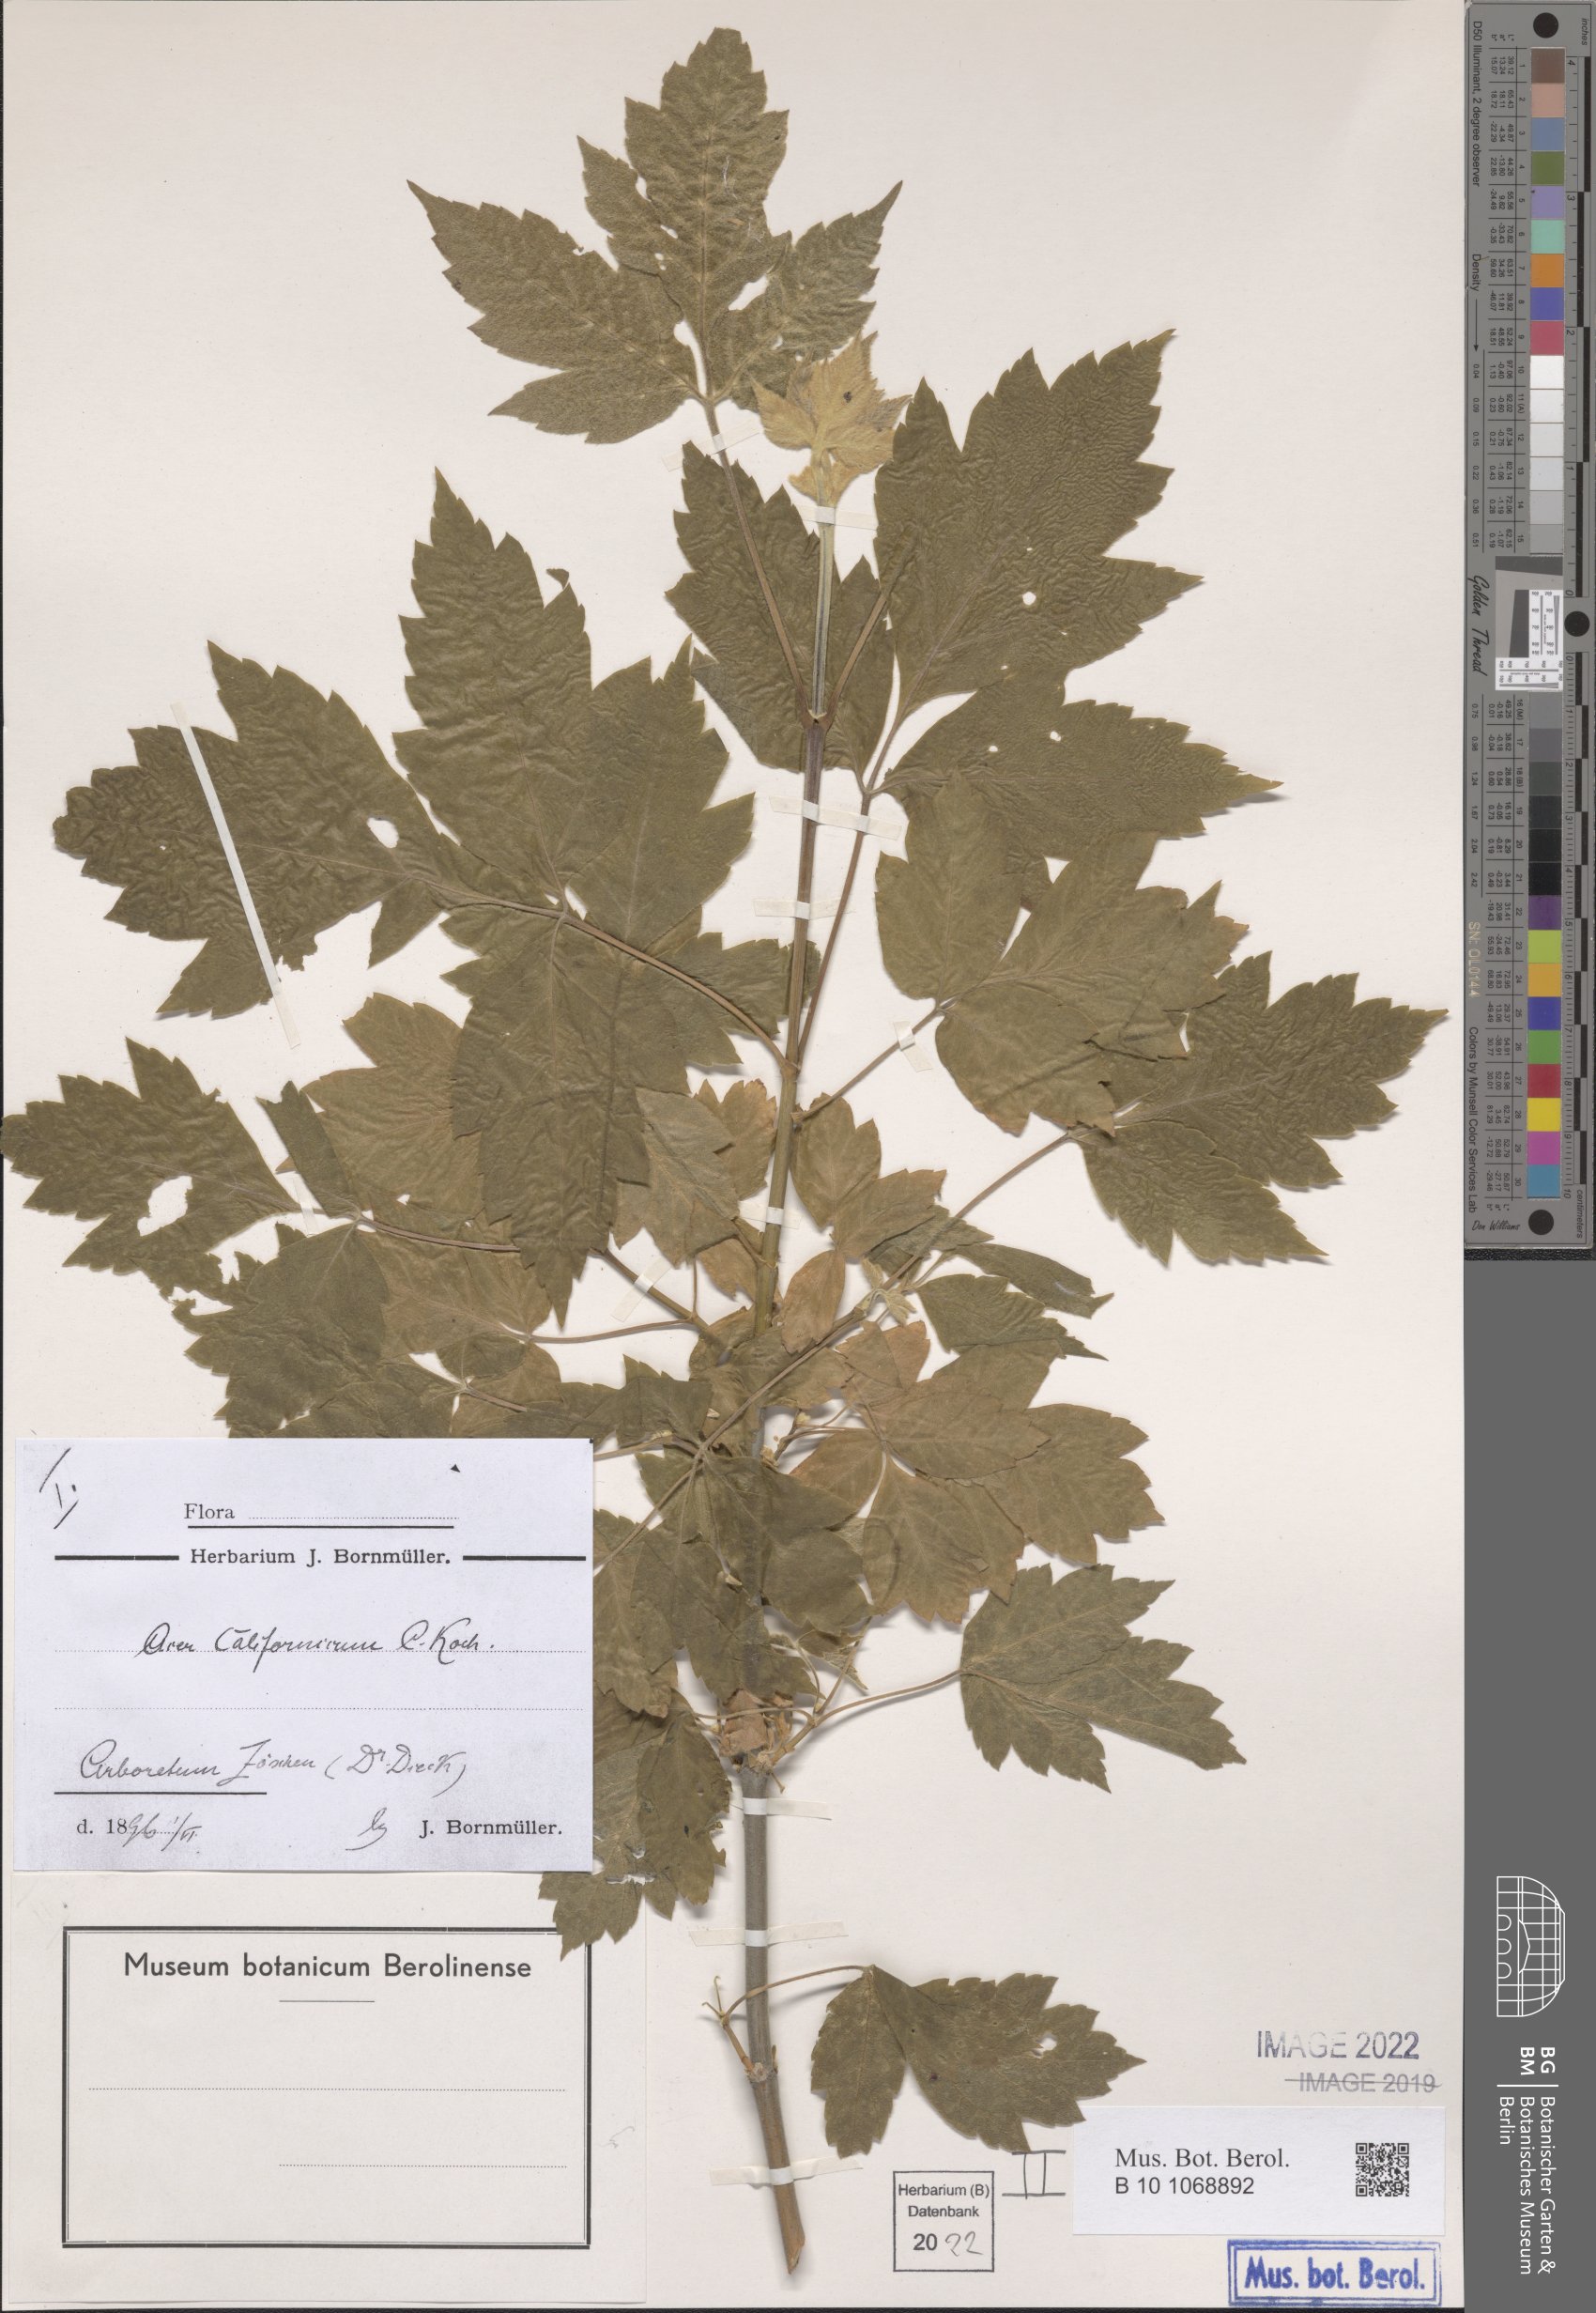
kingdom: Plantae
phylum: Tracheophyta
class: Magnoliopsida
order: Sapindales
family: Sapindaceae
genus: Acer
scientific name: Acer negundo
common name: Ashleaf maple
